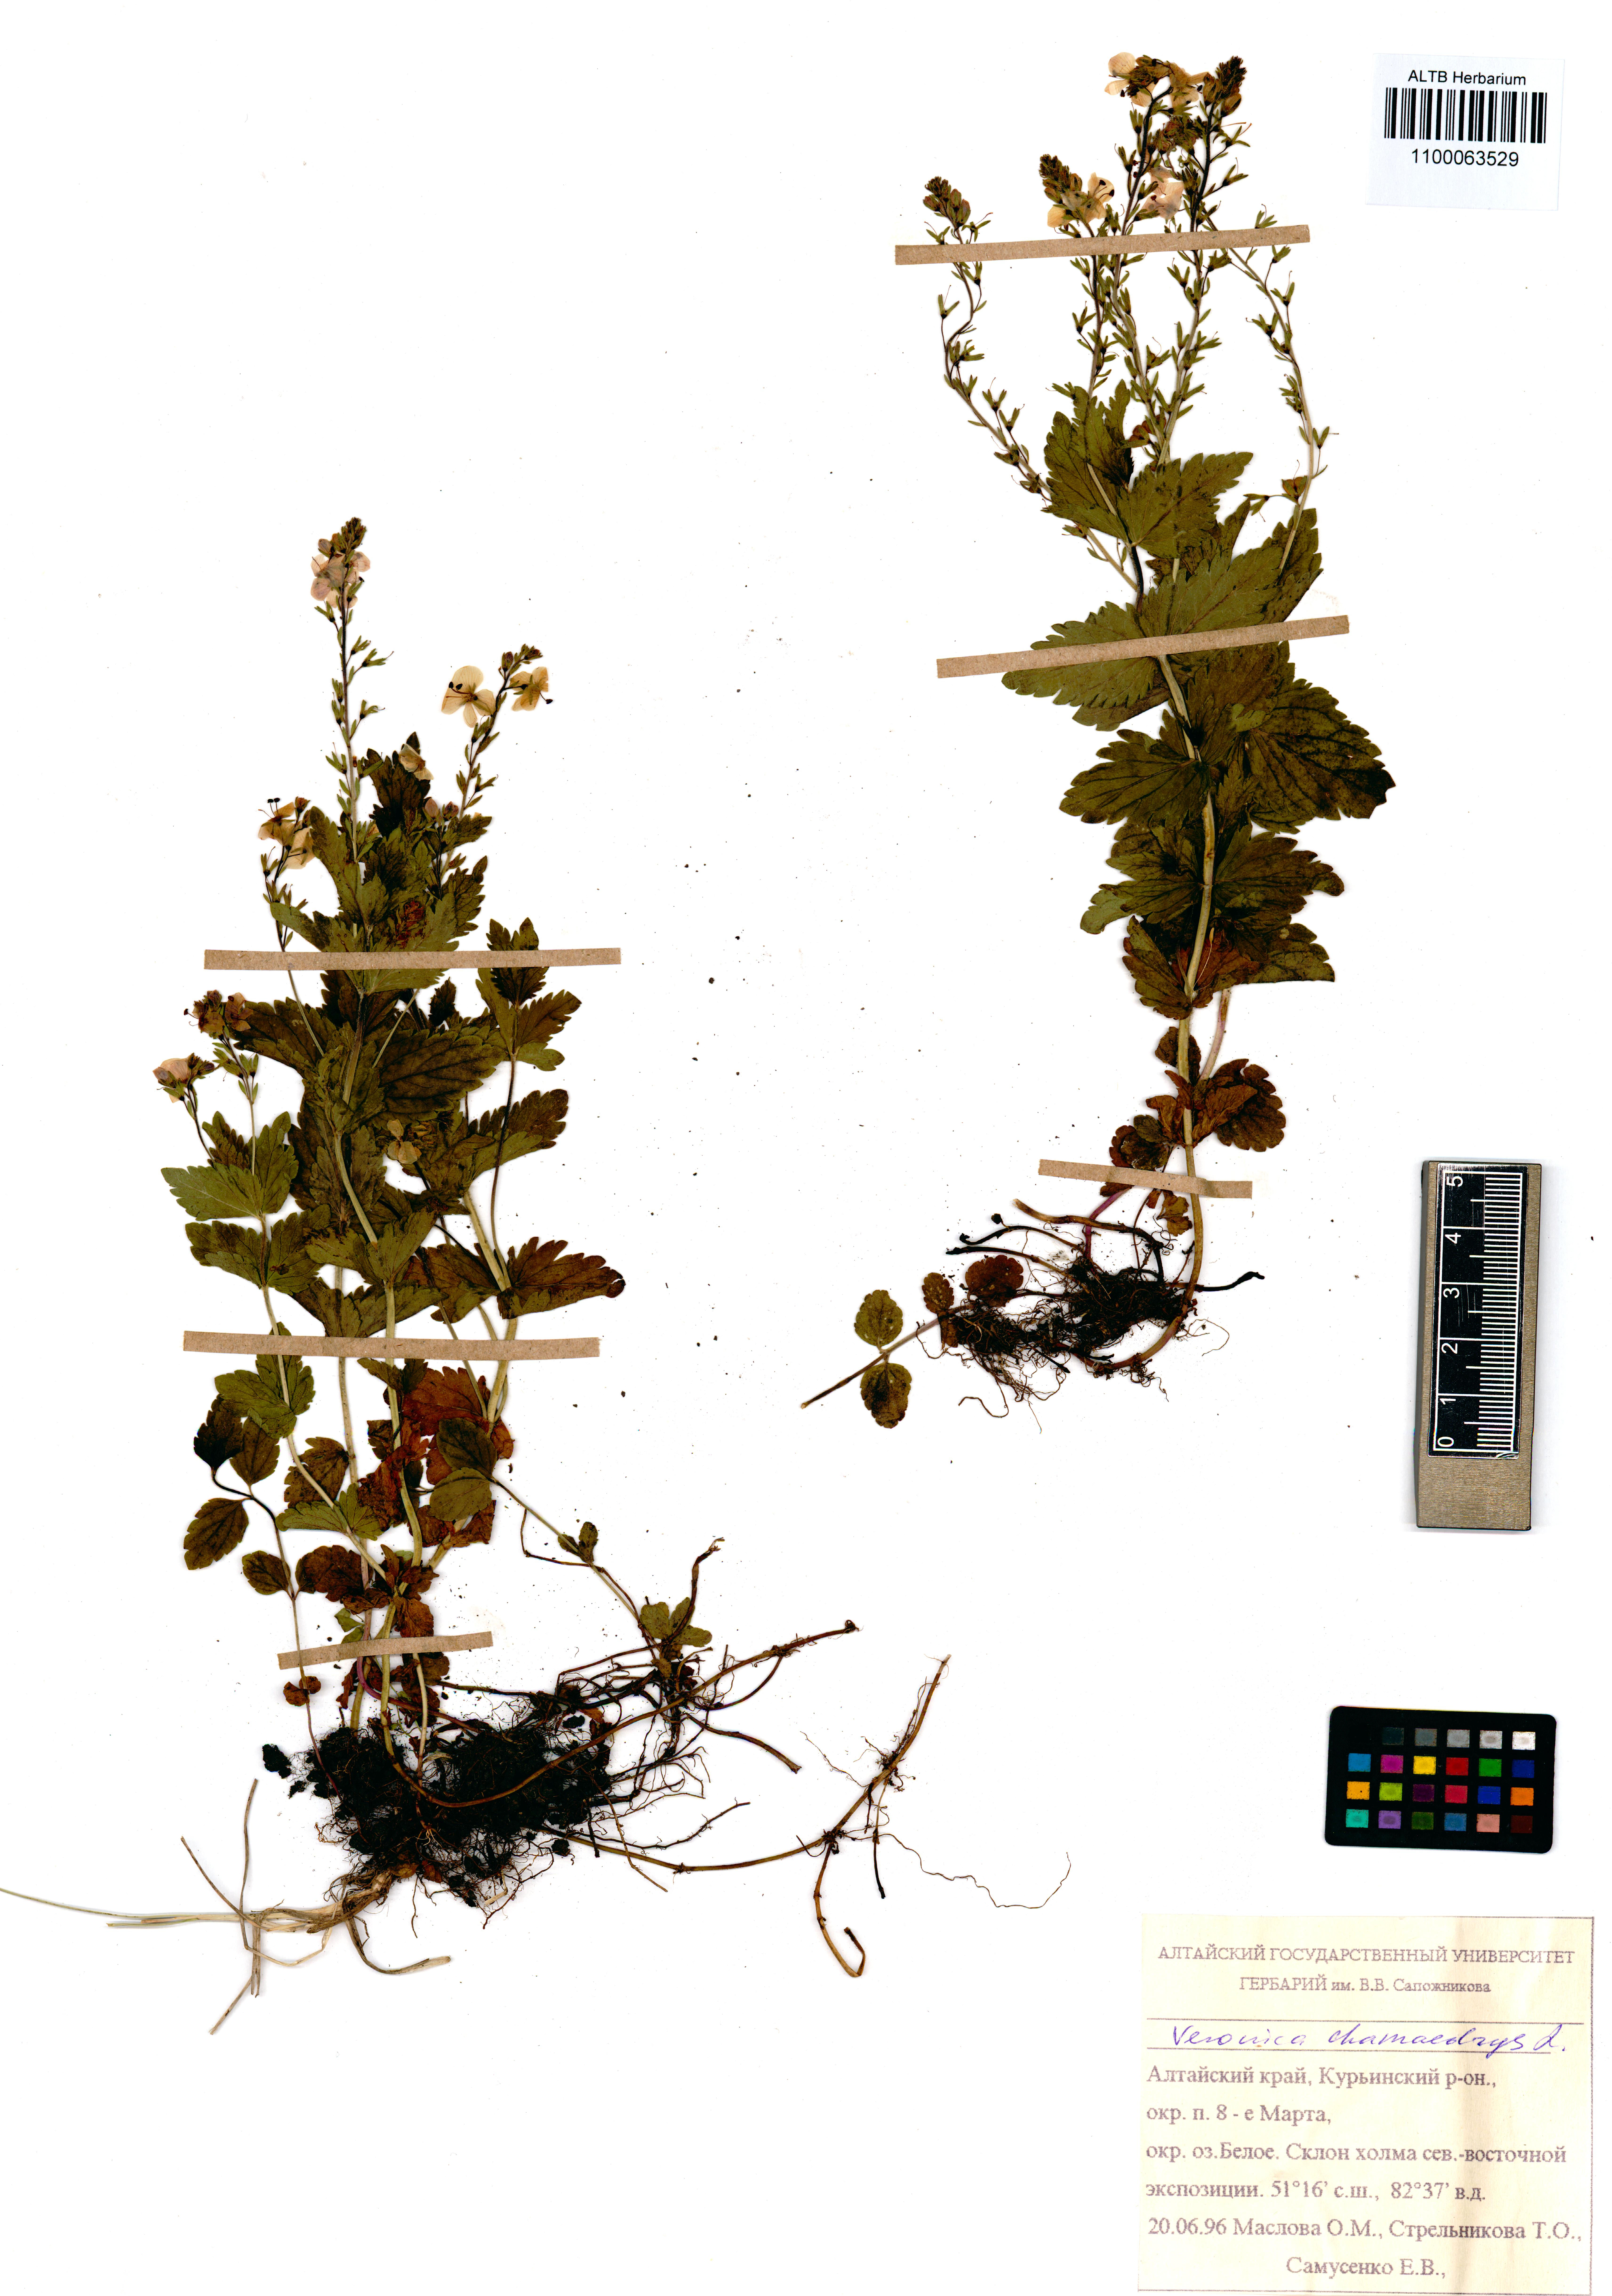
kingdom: Plantae
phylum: Tracheophyta
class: Magnoliopsida
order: Lamiales
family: Plantaginaceae
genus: Veronica
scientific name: Veronica chamaedrys
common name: Germander speedwell
